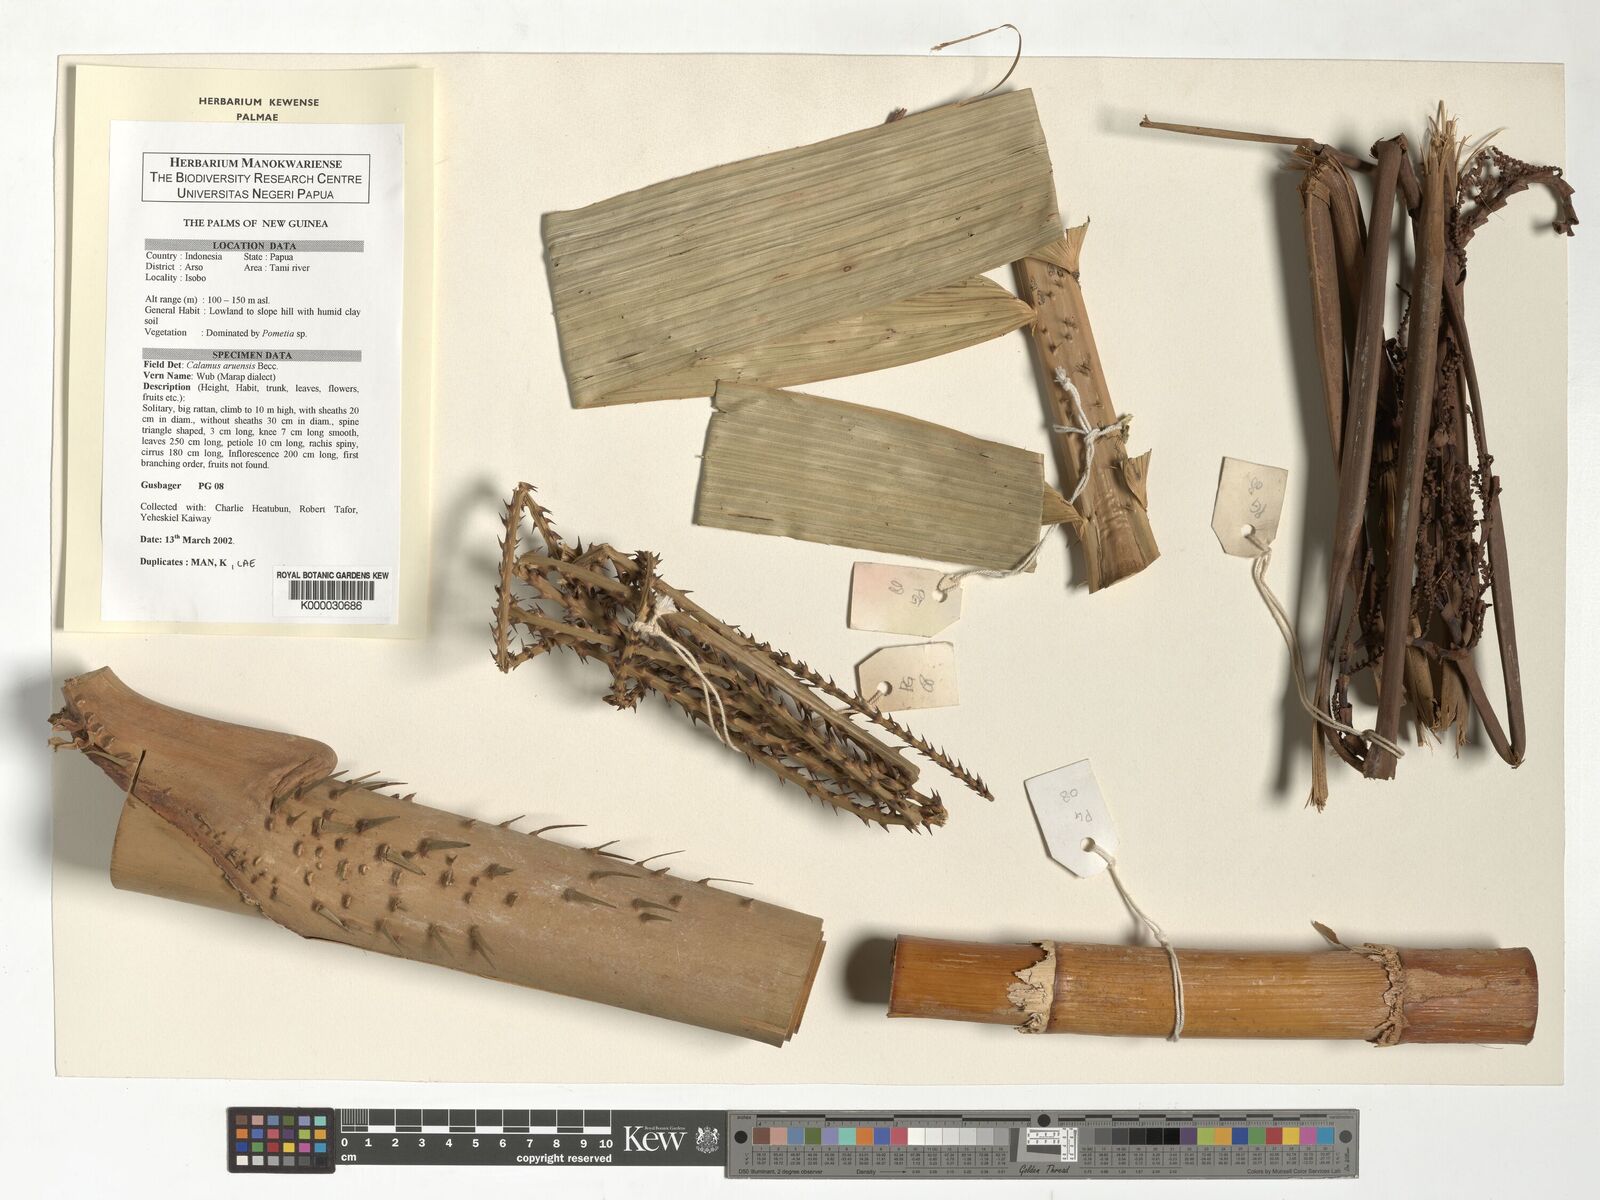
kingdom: Plantae
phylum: Tracheophyta
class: Liliopsida
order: Arecales
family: Arecaceae
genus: Calamus
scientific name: Calamus aruensis
